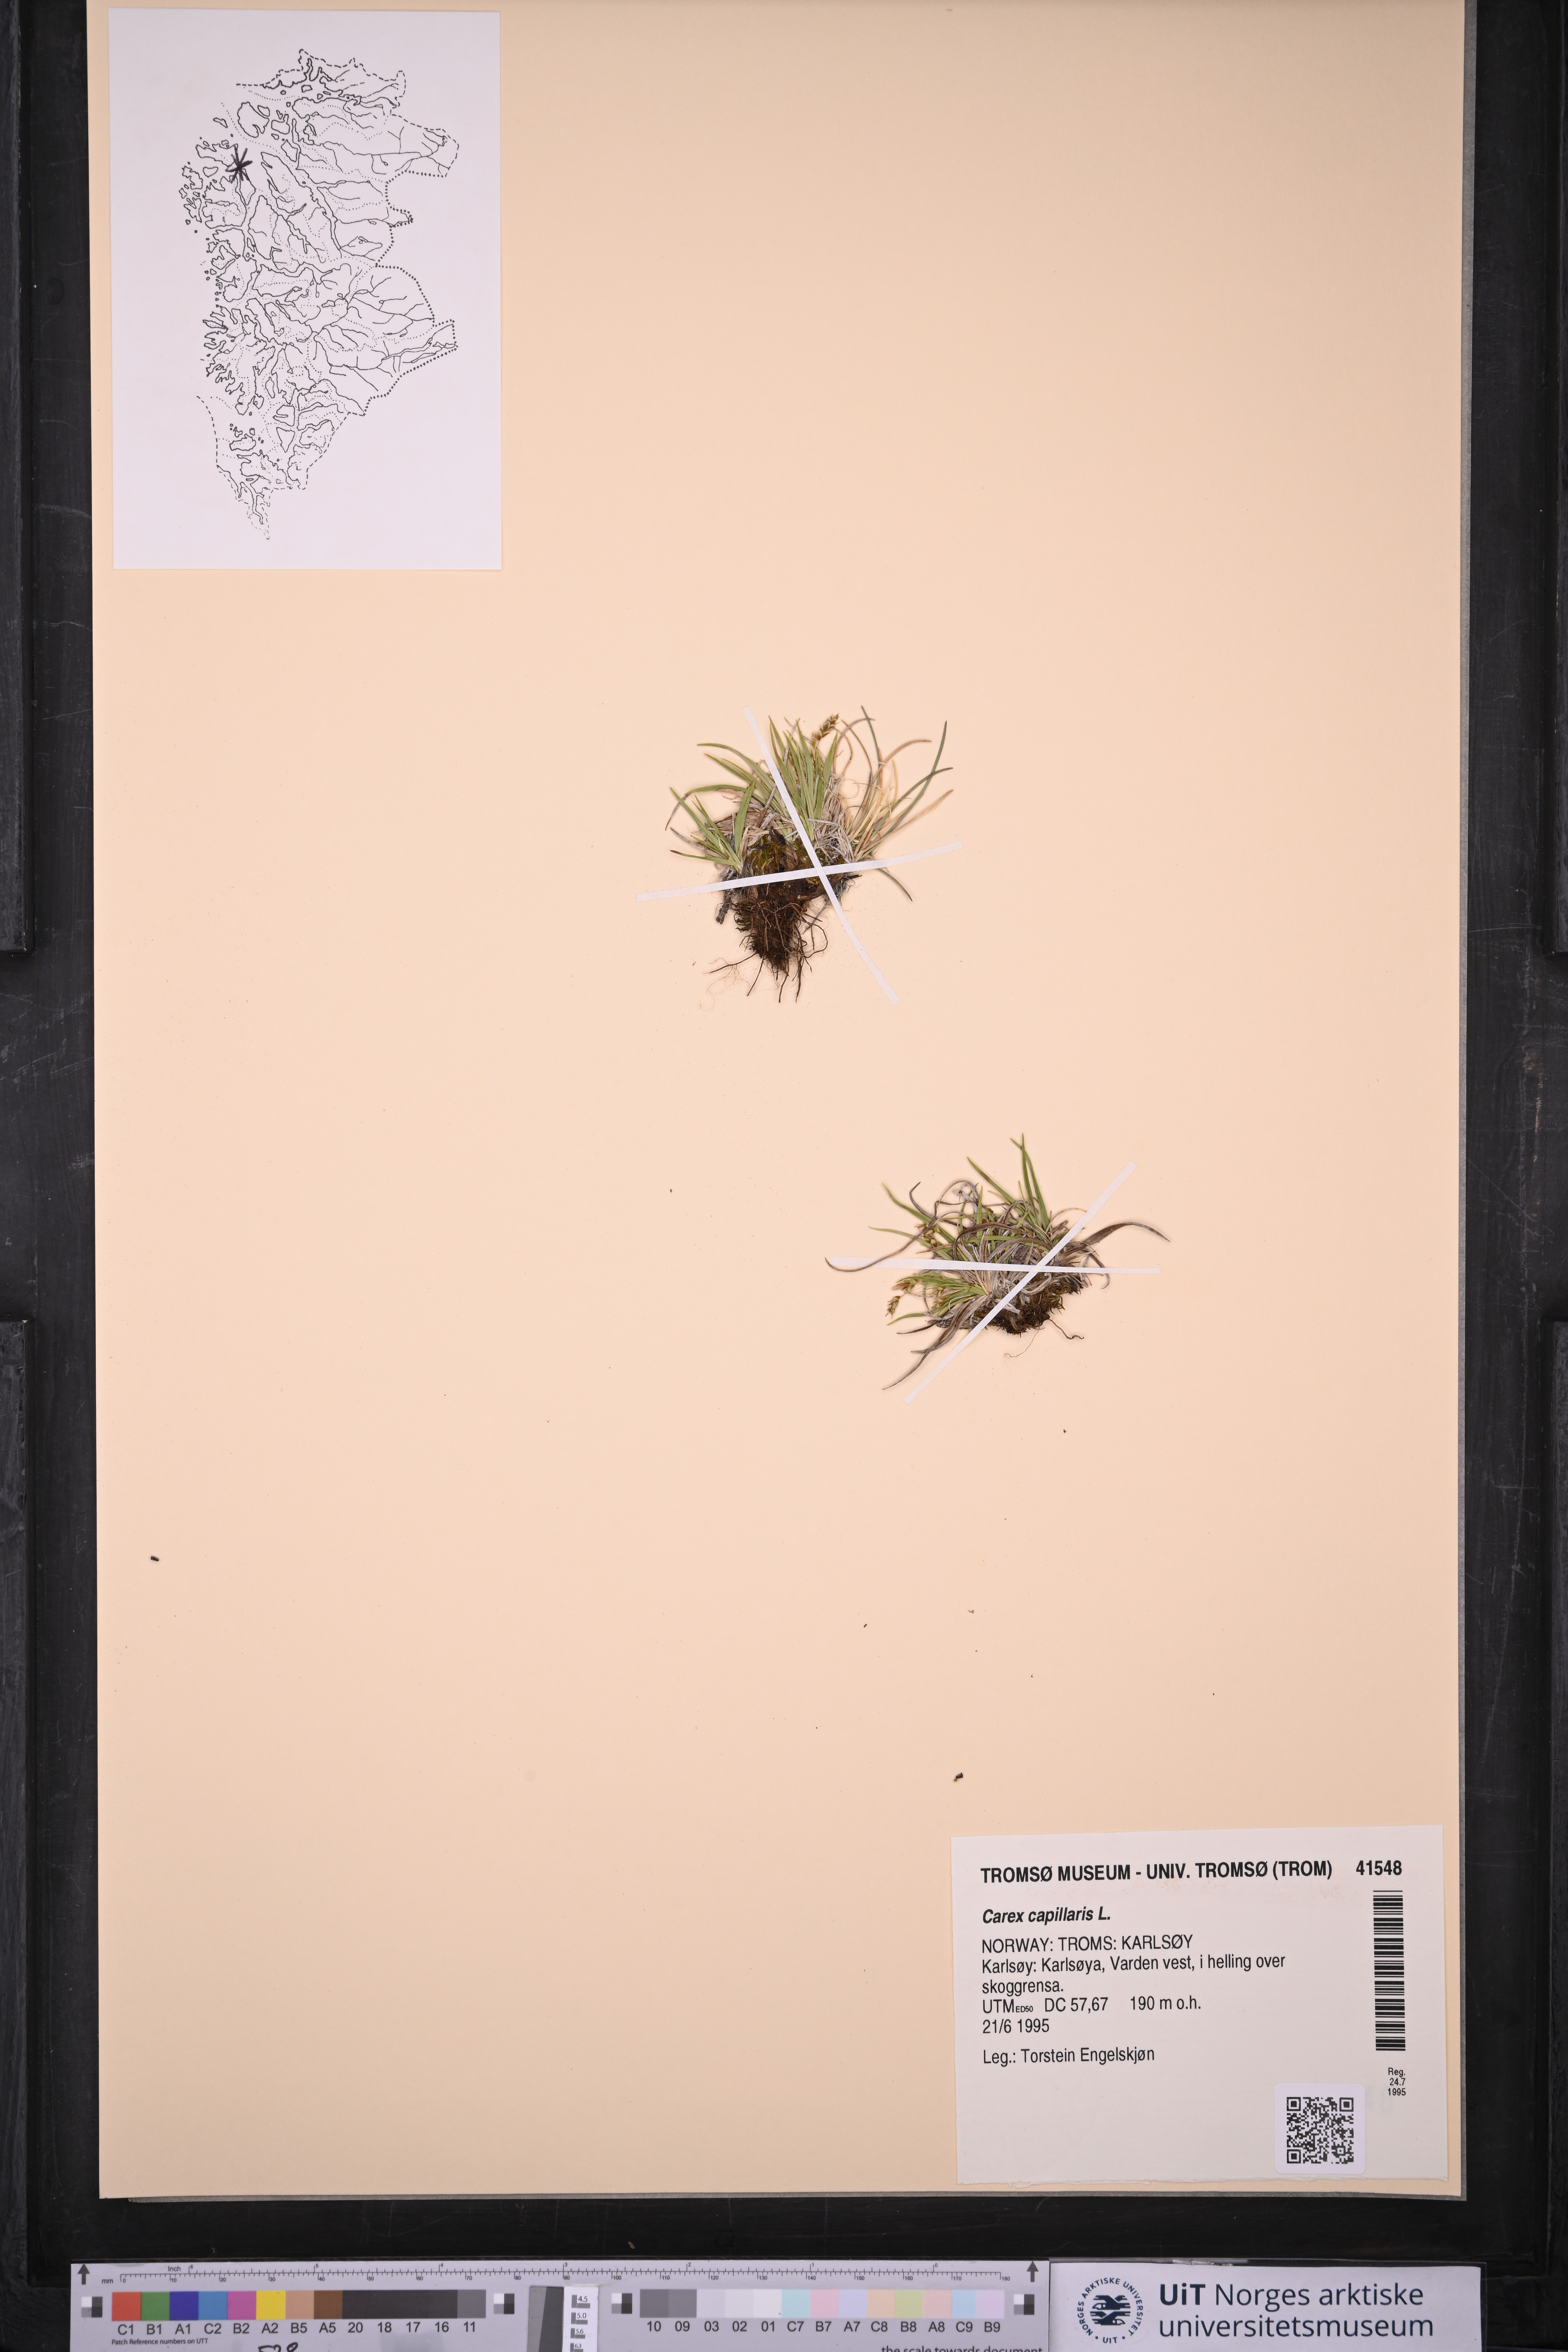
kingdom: Plantae
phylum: Tracheophyta
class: Liliopsida
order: Poales
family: Cyperaceae
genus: Carex
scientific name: Carex capillaris
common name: Hair sedge
